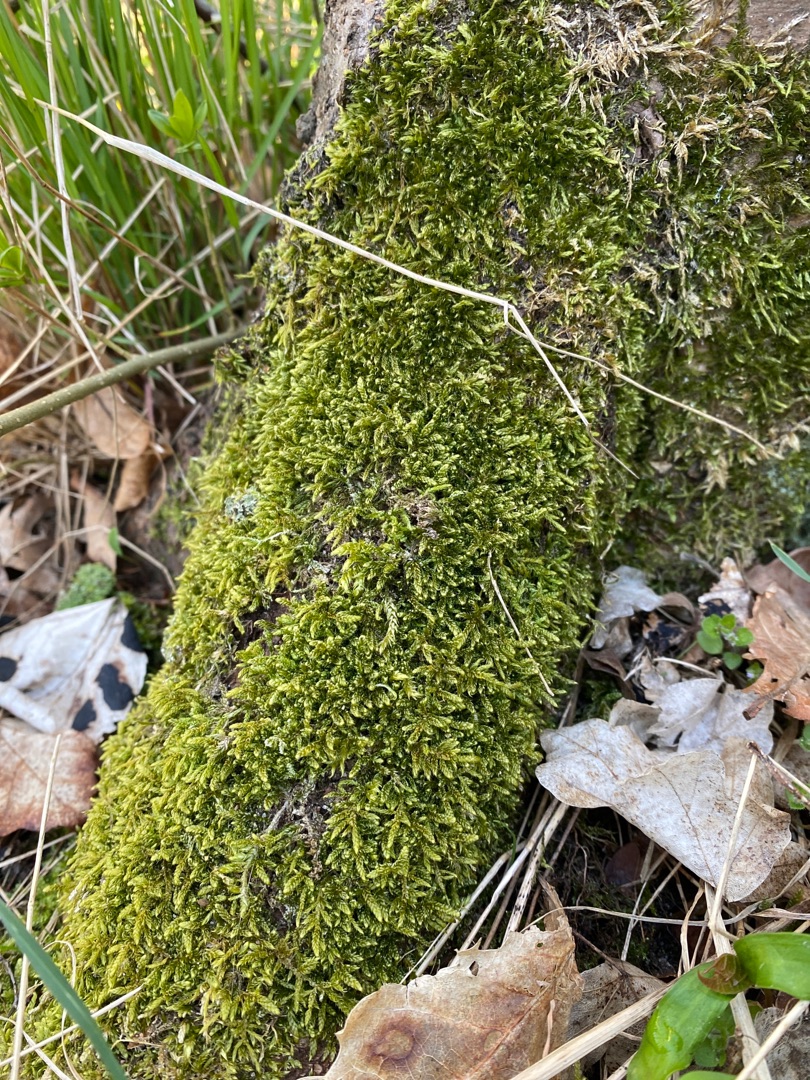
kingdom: Plantae
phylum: Bryophyta
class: Bryopsida
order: Hypnales
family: Hypnaceae
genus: Hypnum
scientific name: Hypnum cupressiforme
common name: Almindelig cypresmos
